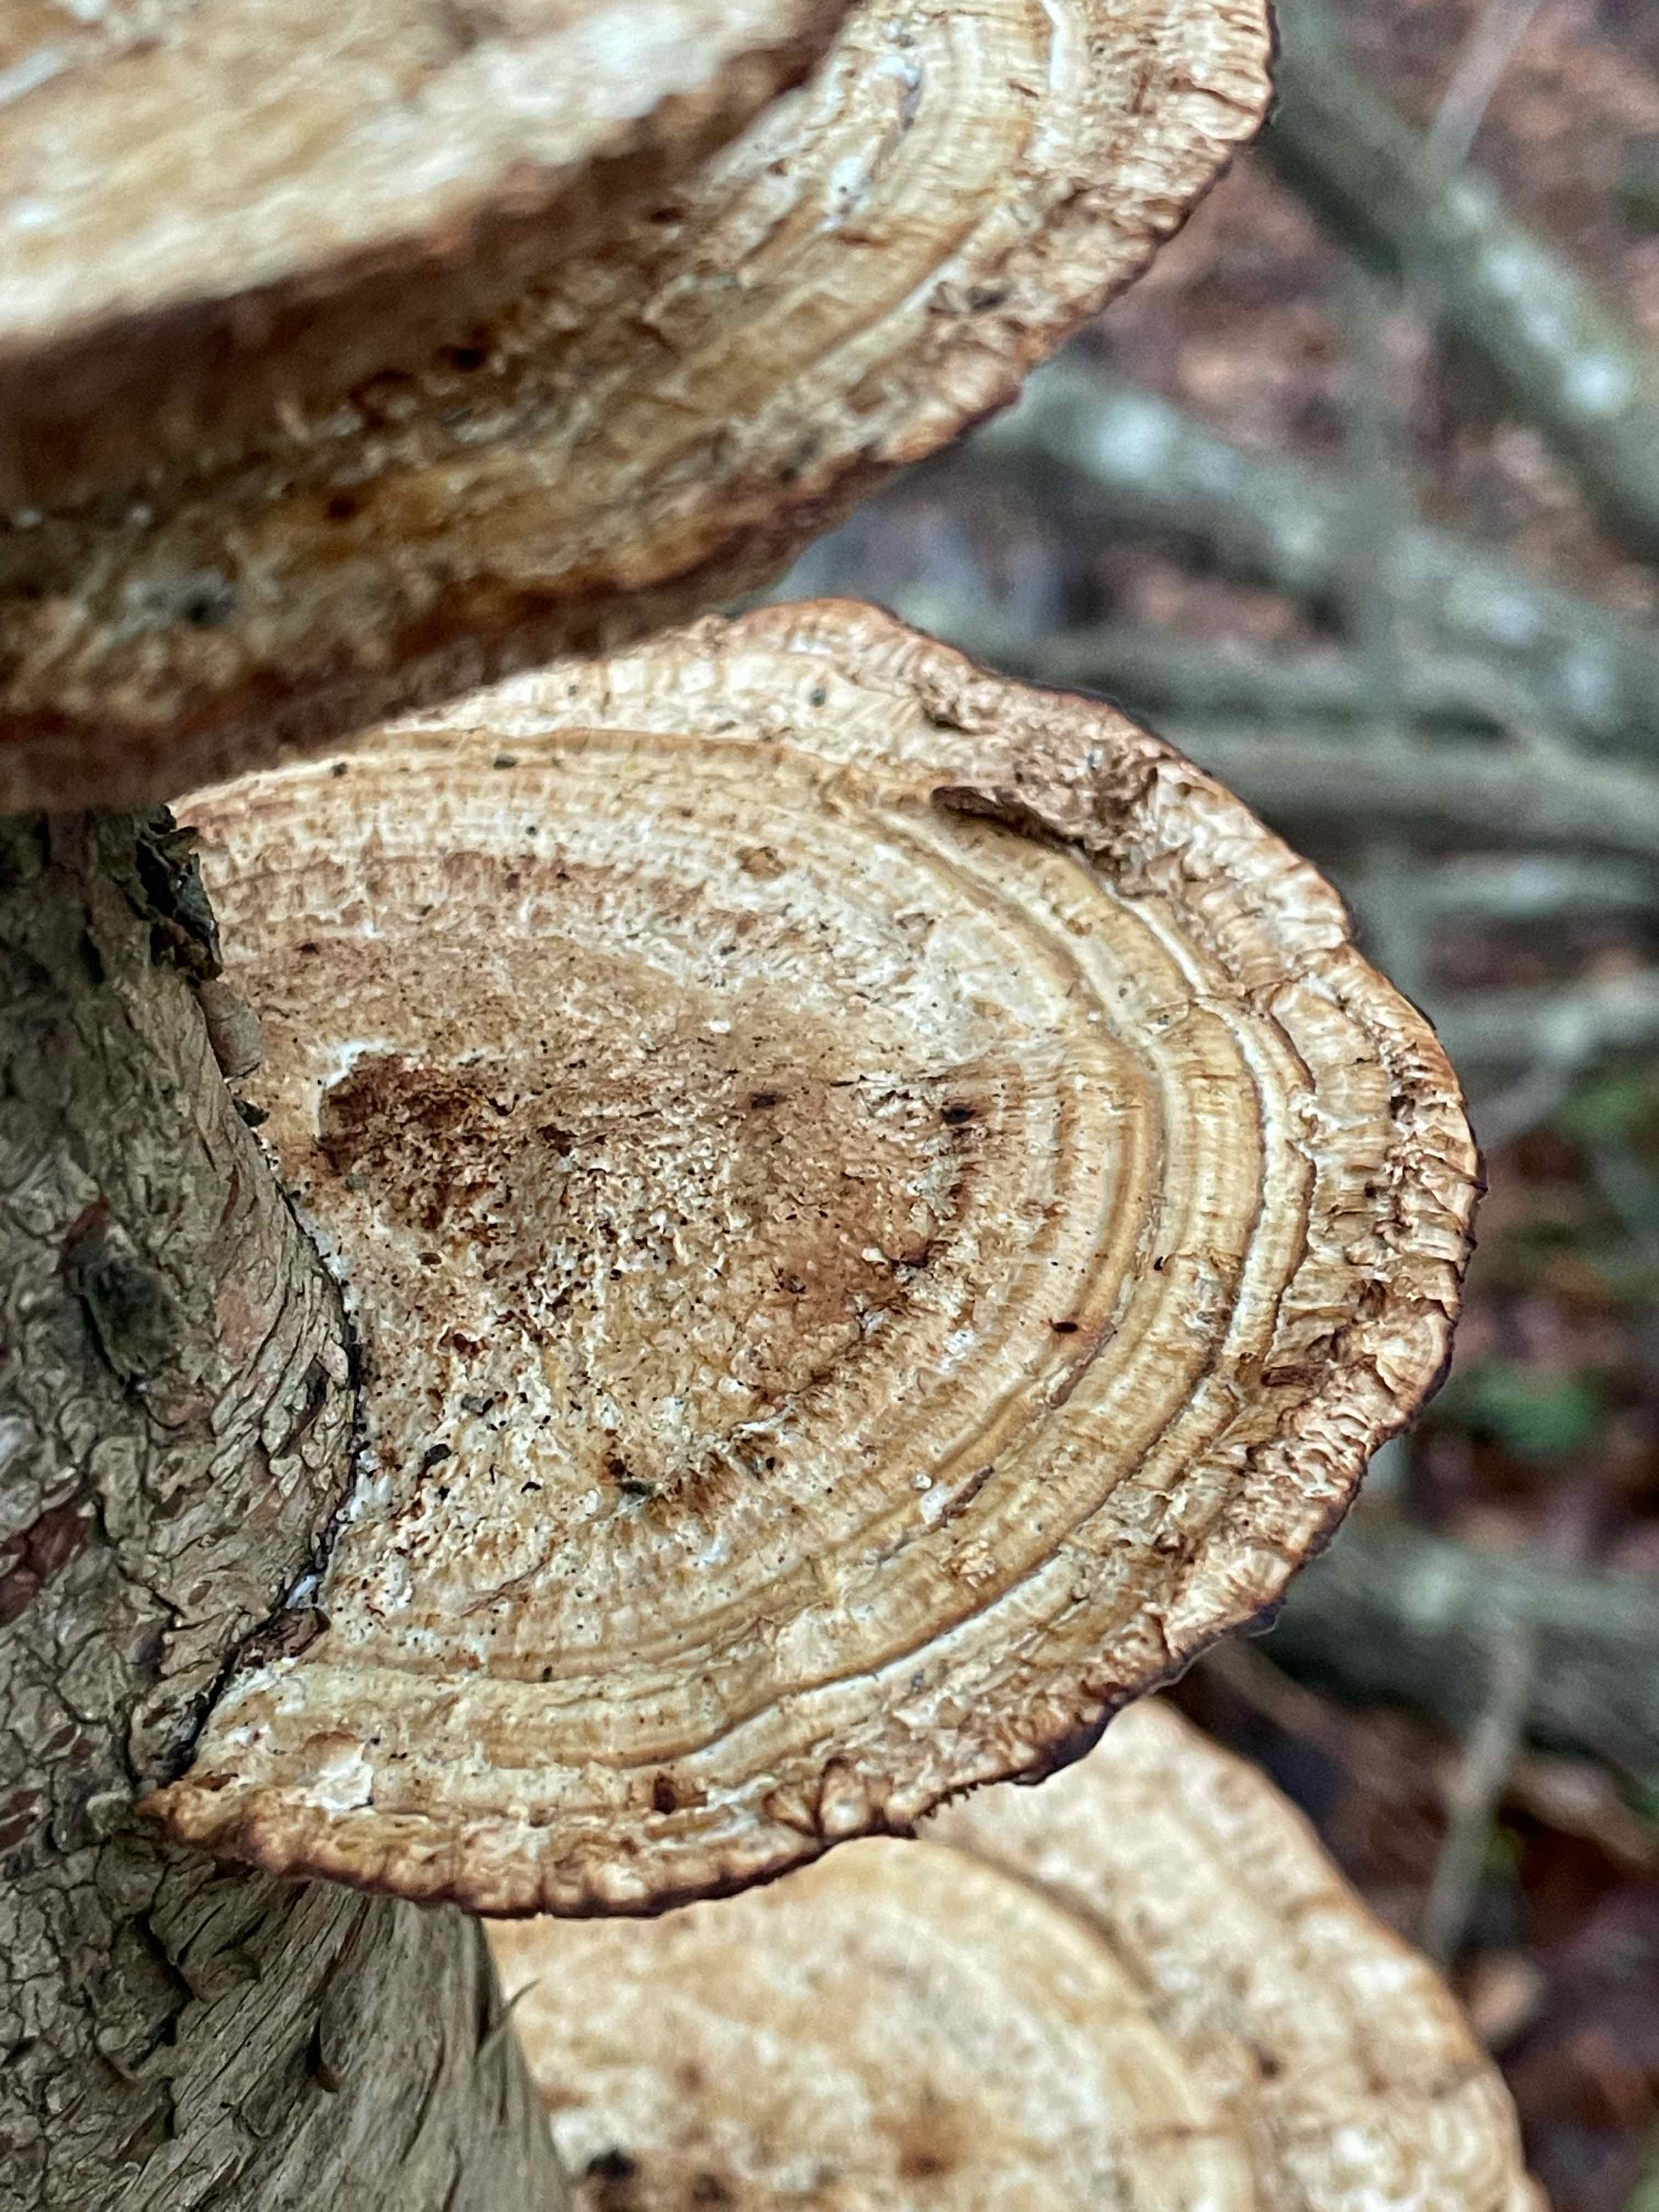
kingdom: Fungi
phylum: Basidiomycota
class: Agaricomycetes
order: Polyporales
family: Polyporaceae
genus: Daedaleopsis
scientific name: Daedaleopsis confragosa
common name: rødmende læderporesvamp
